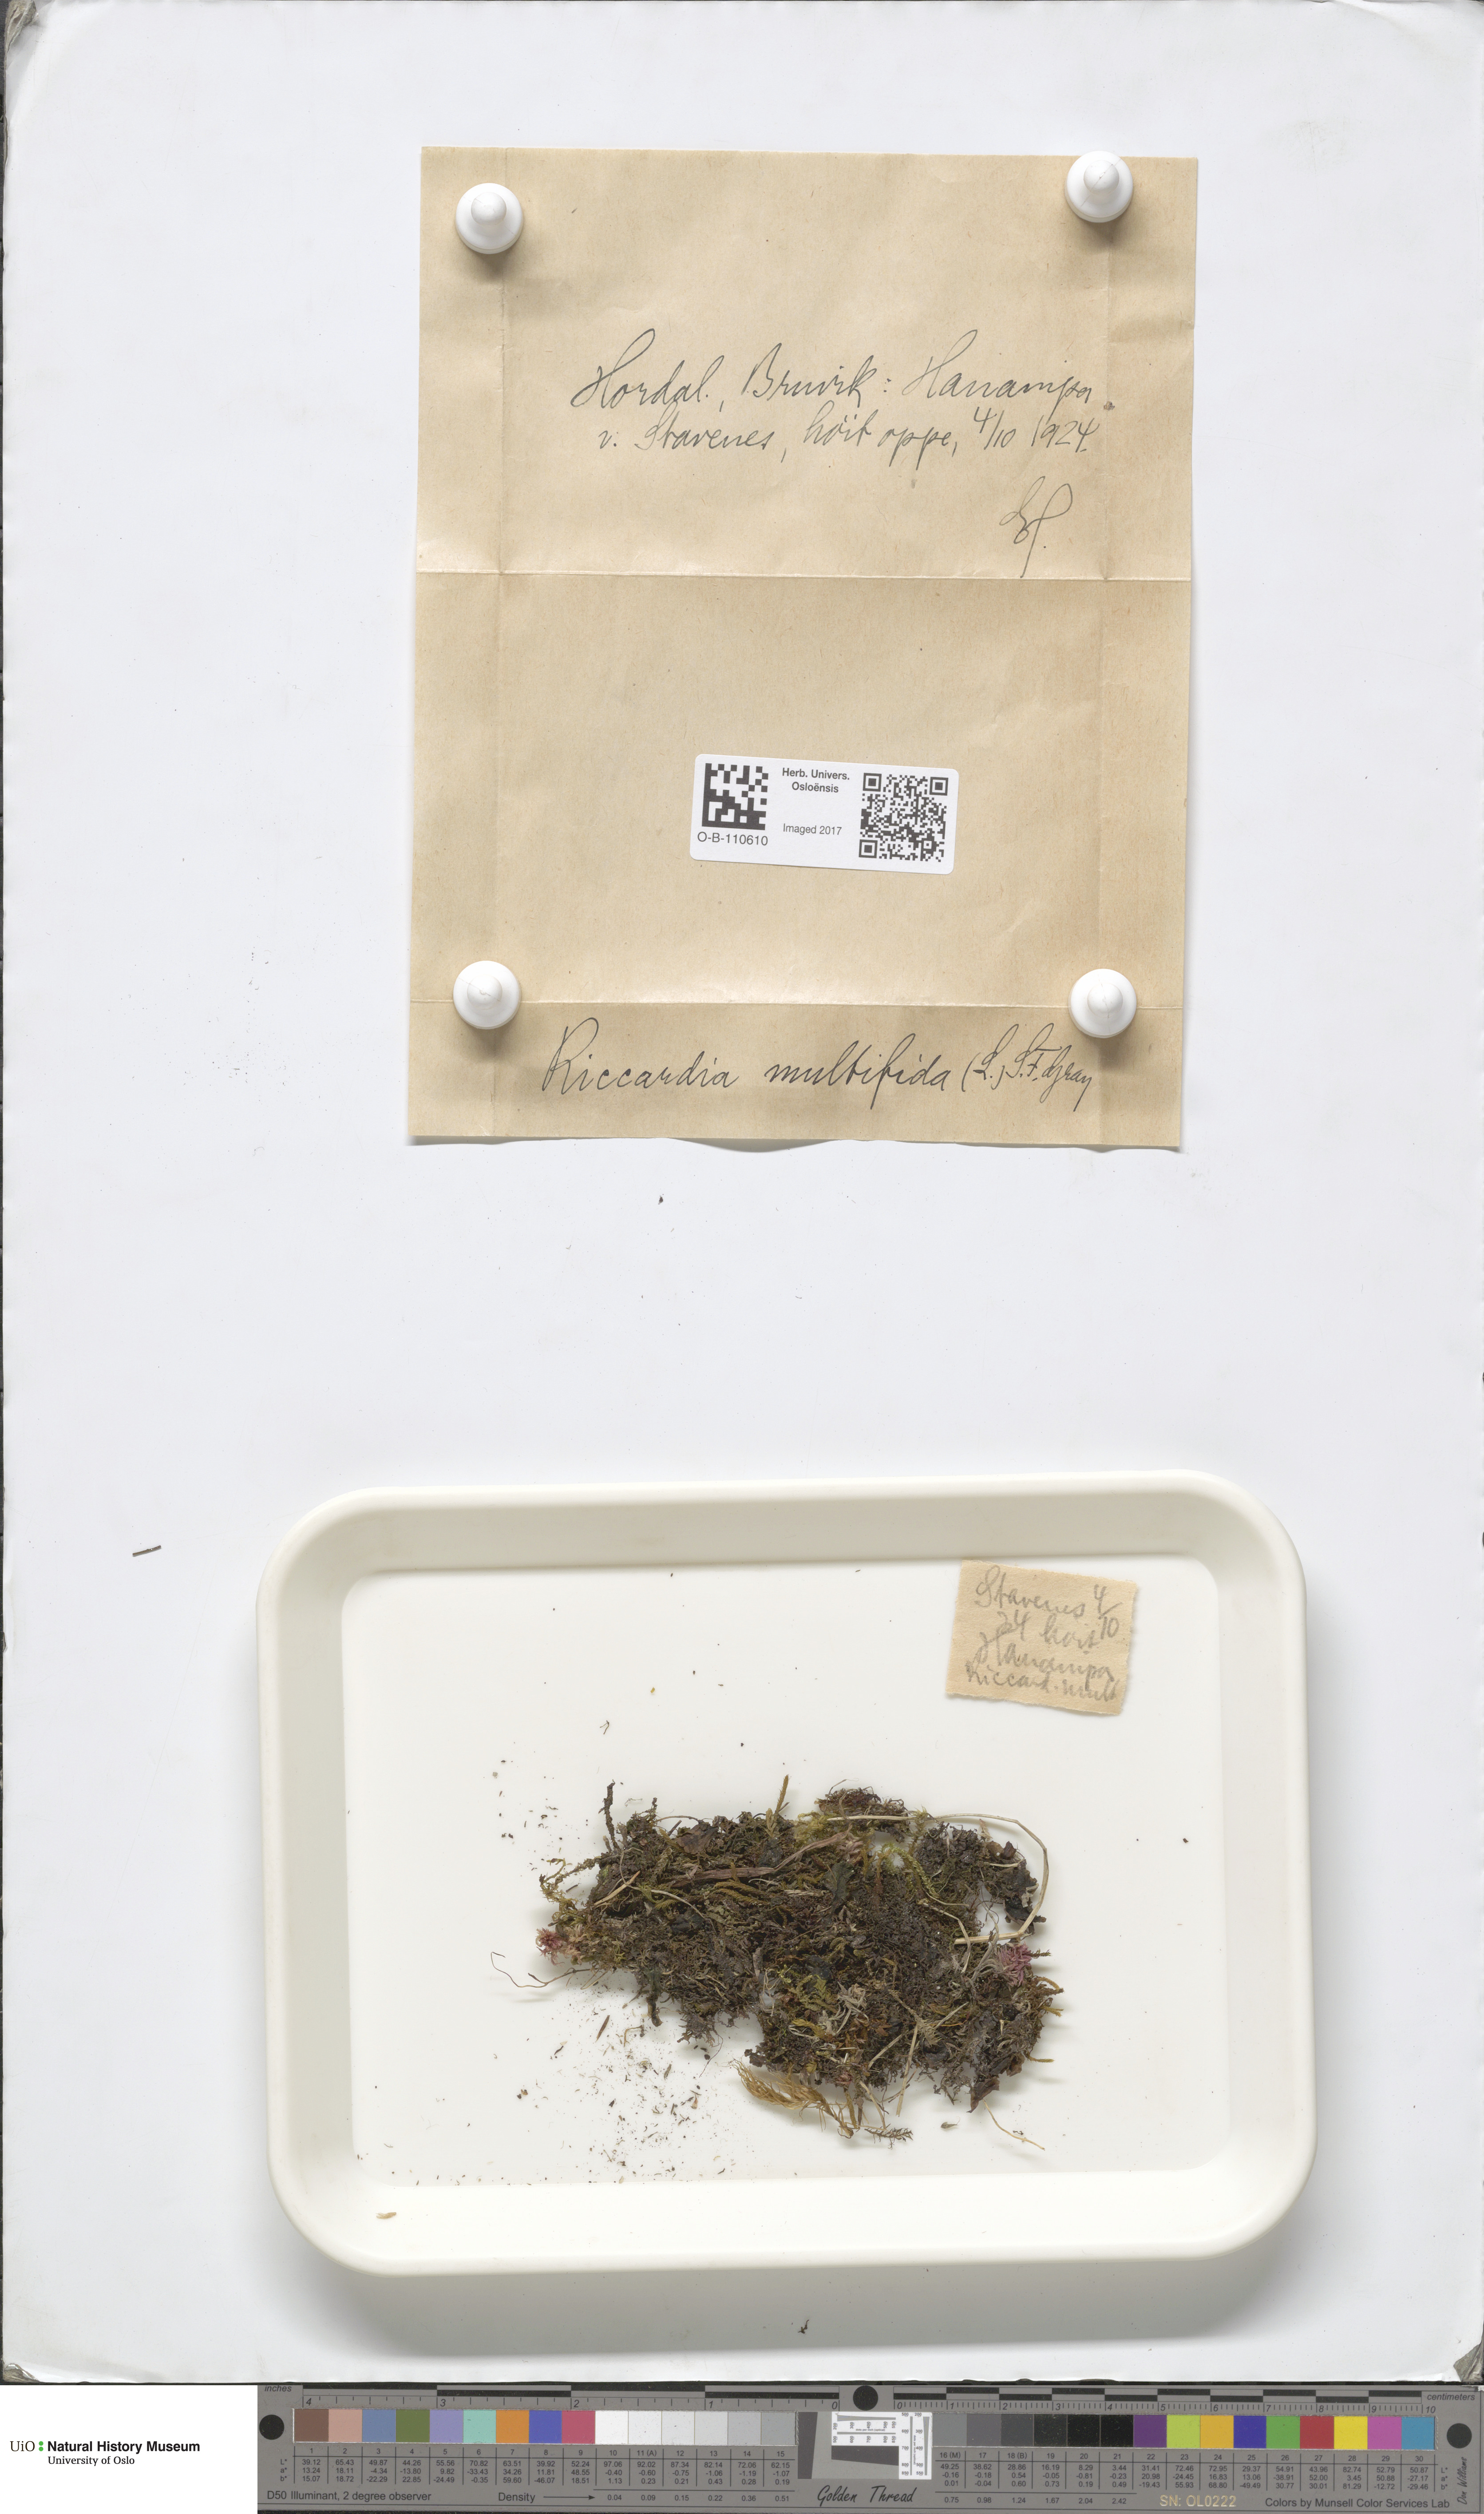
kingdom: Plantae
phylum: Marchantiophyta
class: Jungermanniopsida
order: Metzgeriales
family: Aneuraceae
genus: Riccardia
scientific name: Riccardia multifida
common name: Delicate germanderwort
